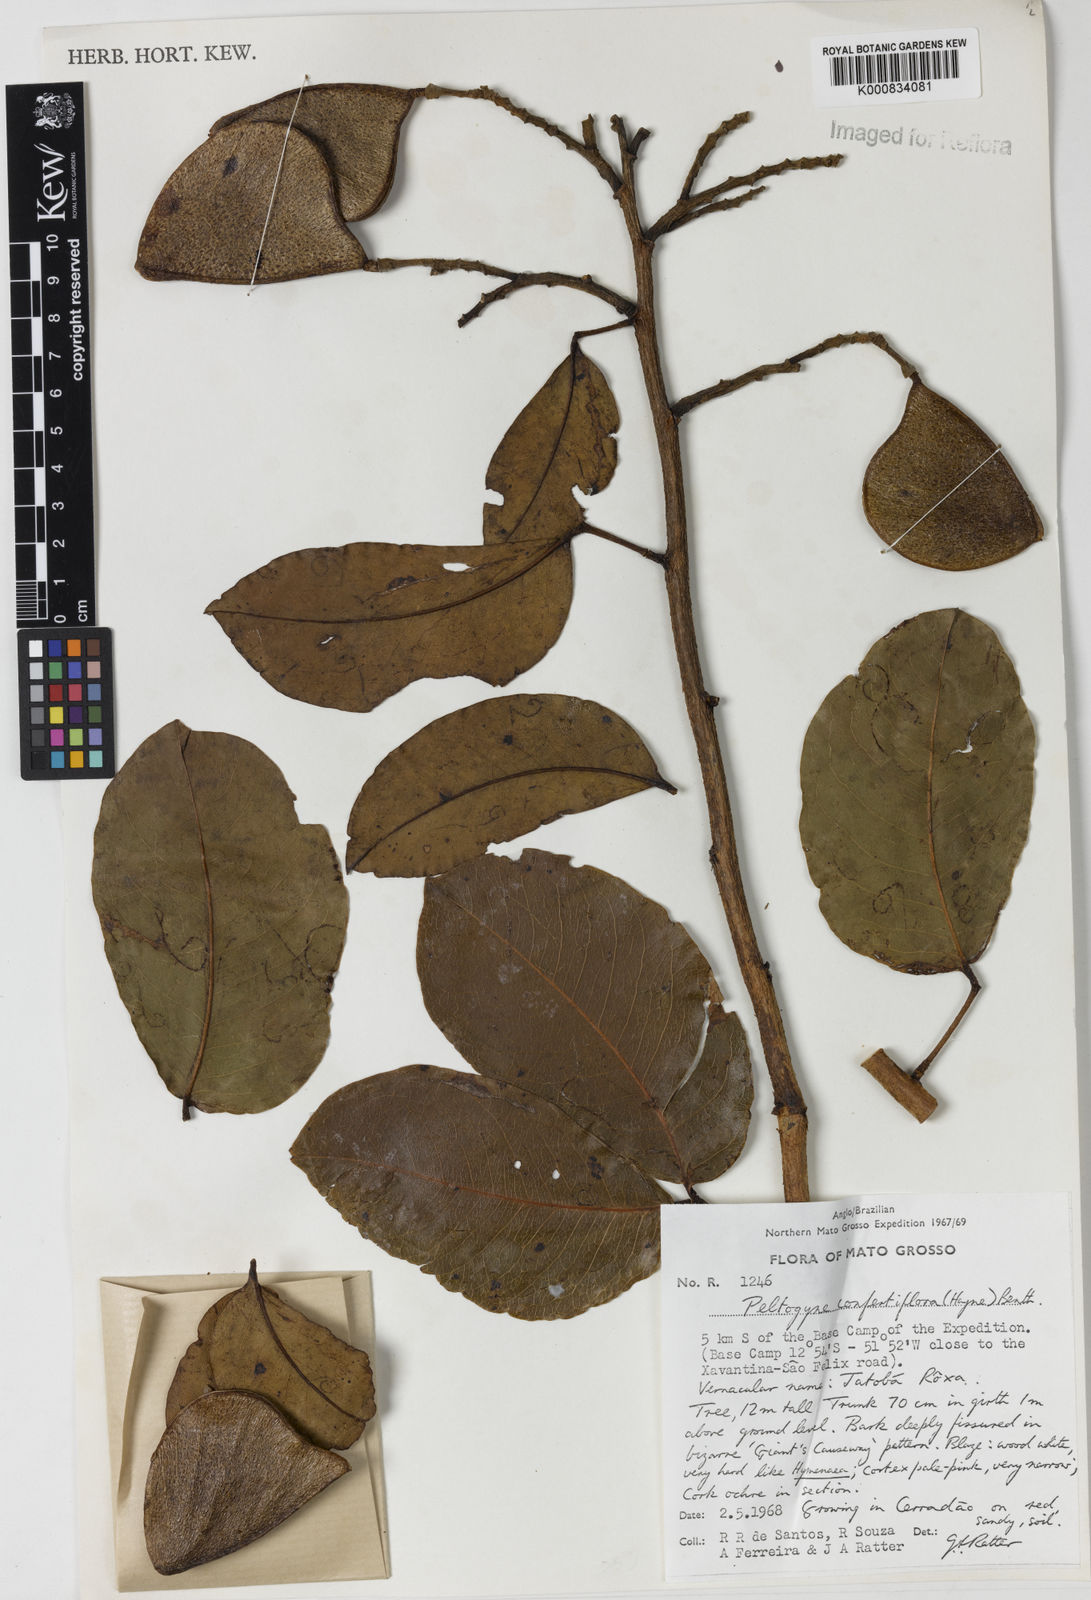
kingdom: Plantae
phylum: Tracheophyta
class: Magnoliopsida
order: Fabales
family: Fabaceae
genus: Peltogyne
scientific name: Peltogyne confertiflora
